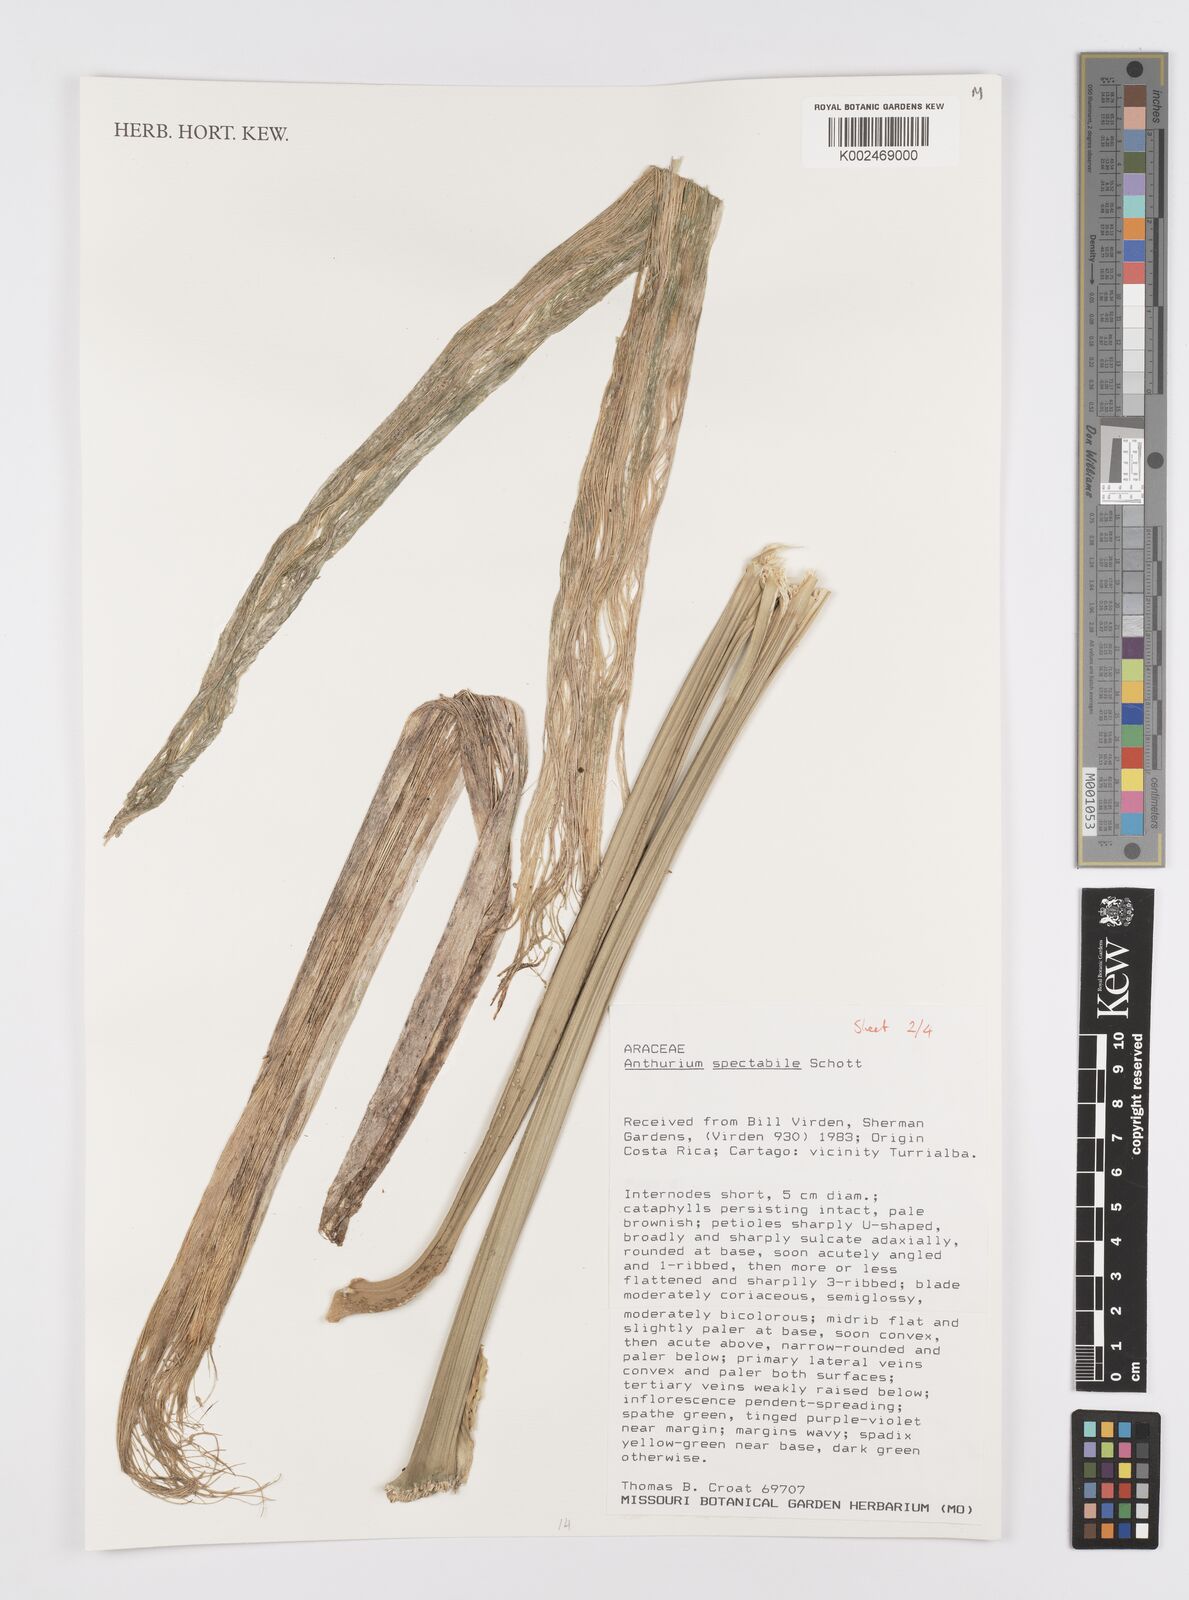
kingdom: Plantae
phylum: Tracheophyta
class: Liliopsida
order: Alismatales
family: Araceae
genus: Anthurium
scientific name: Anthurium spectabile
